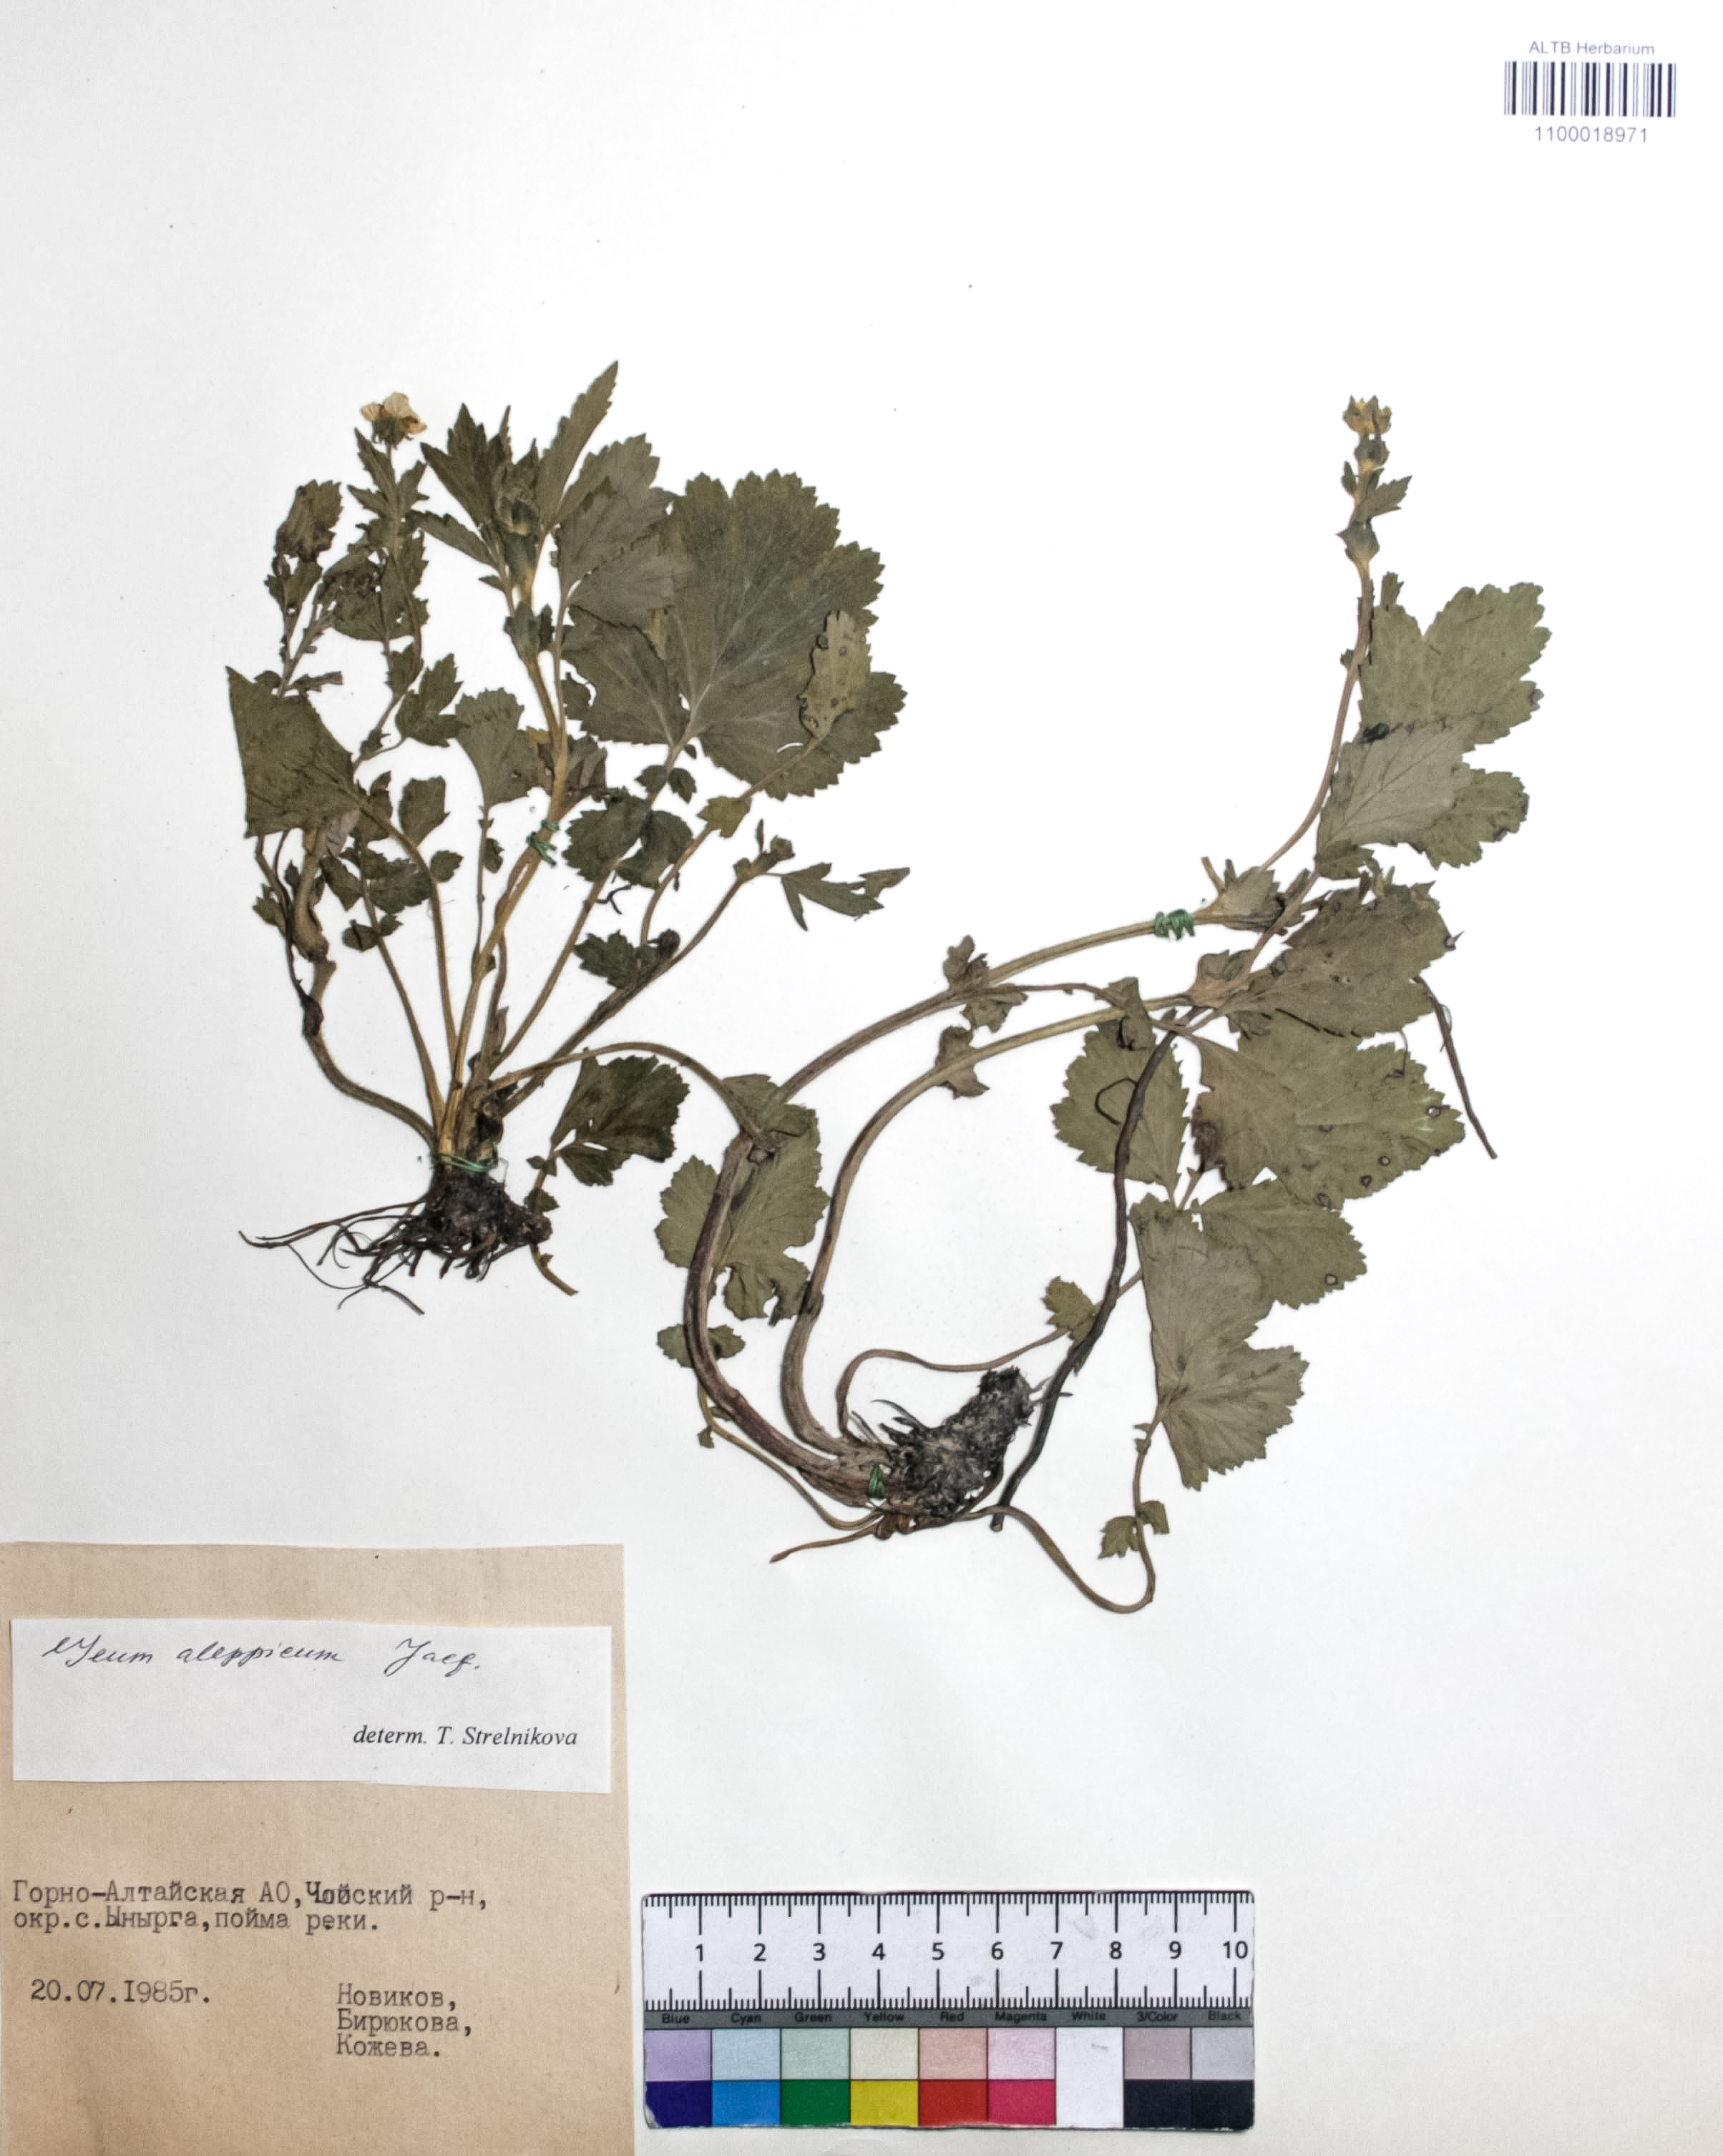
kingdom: Plantae
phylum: Tracheophyta
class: Magnoliopsida
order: Rosales
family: Rosaceae
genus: Geum
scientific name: Geum aleppicum
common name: Yellow avens
